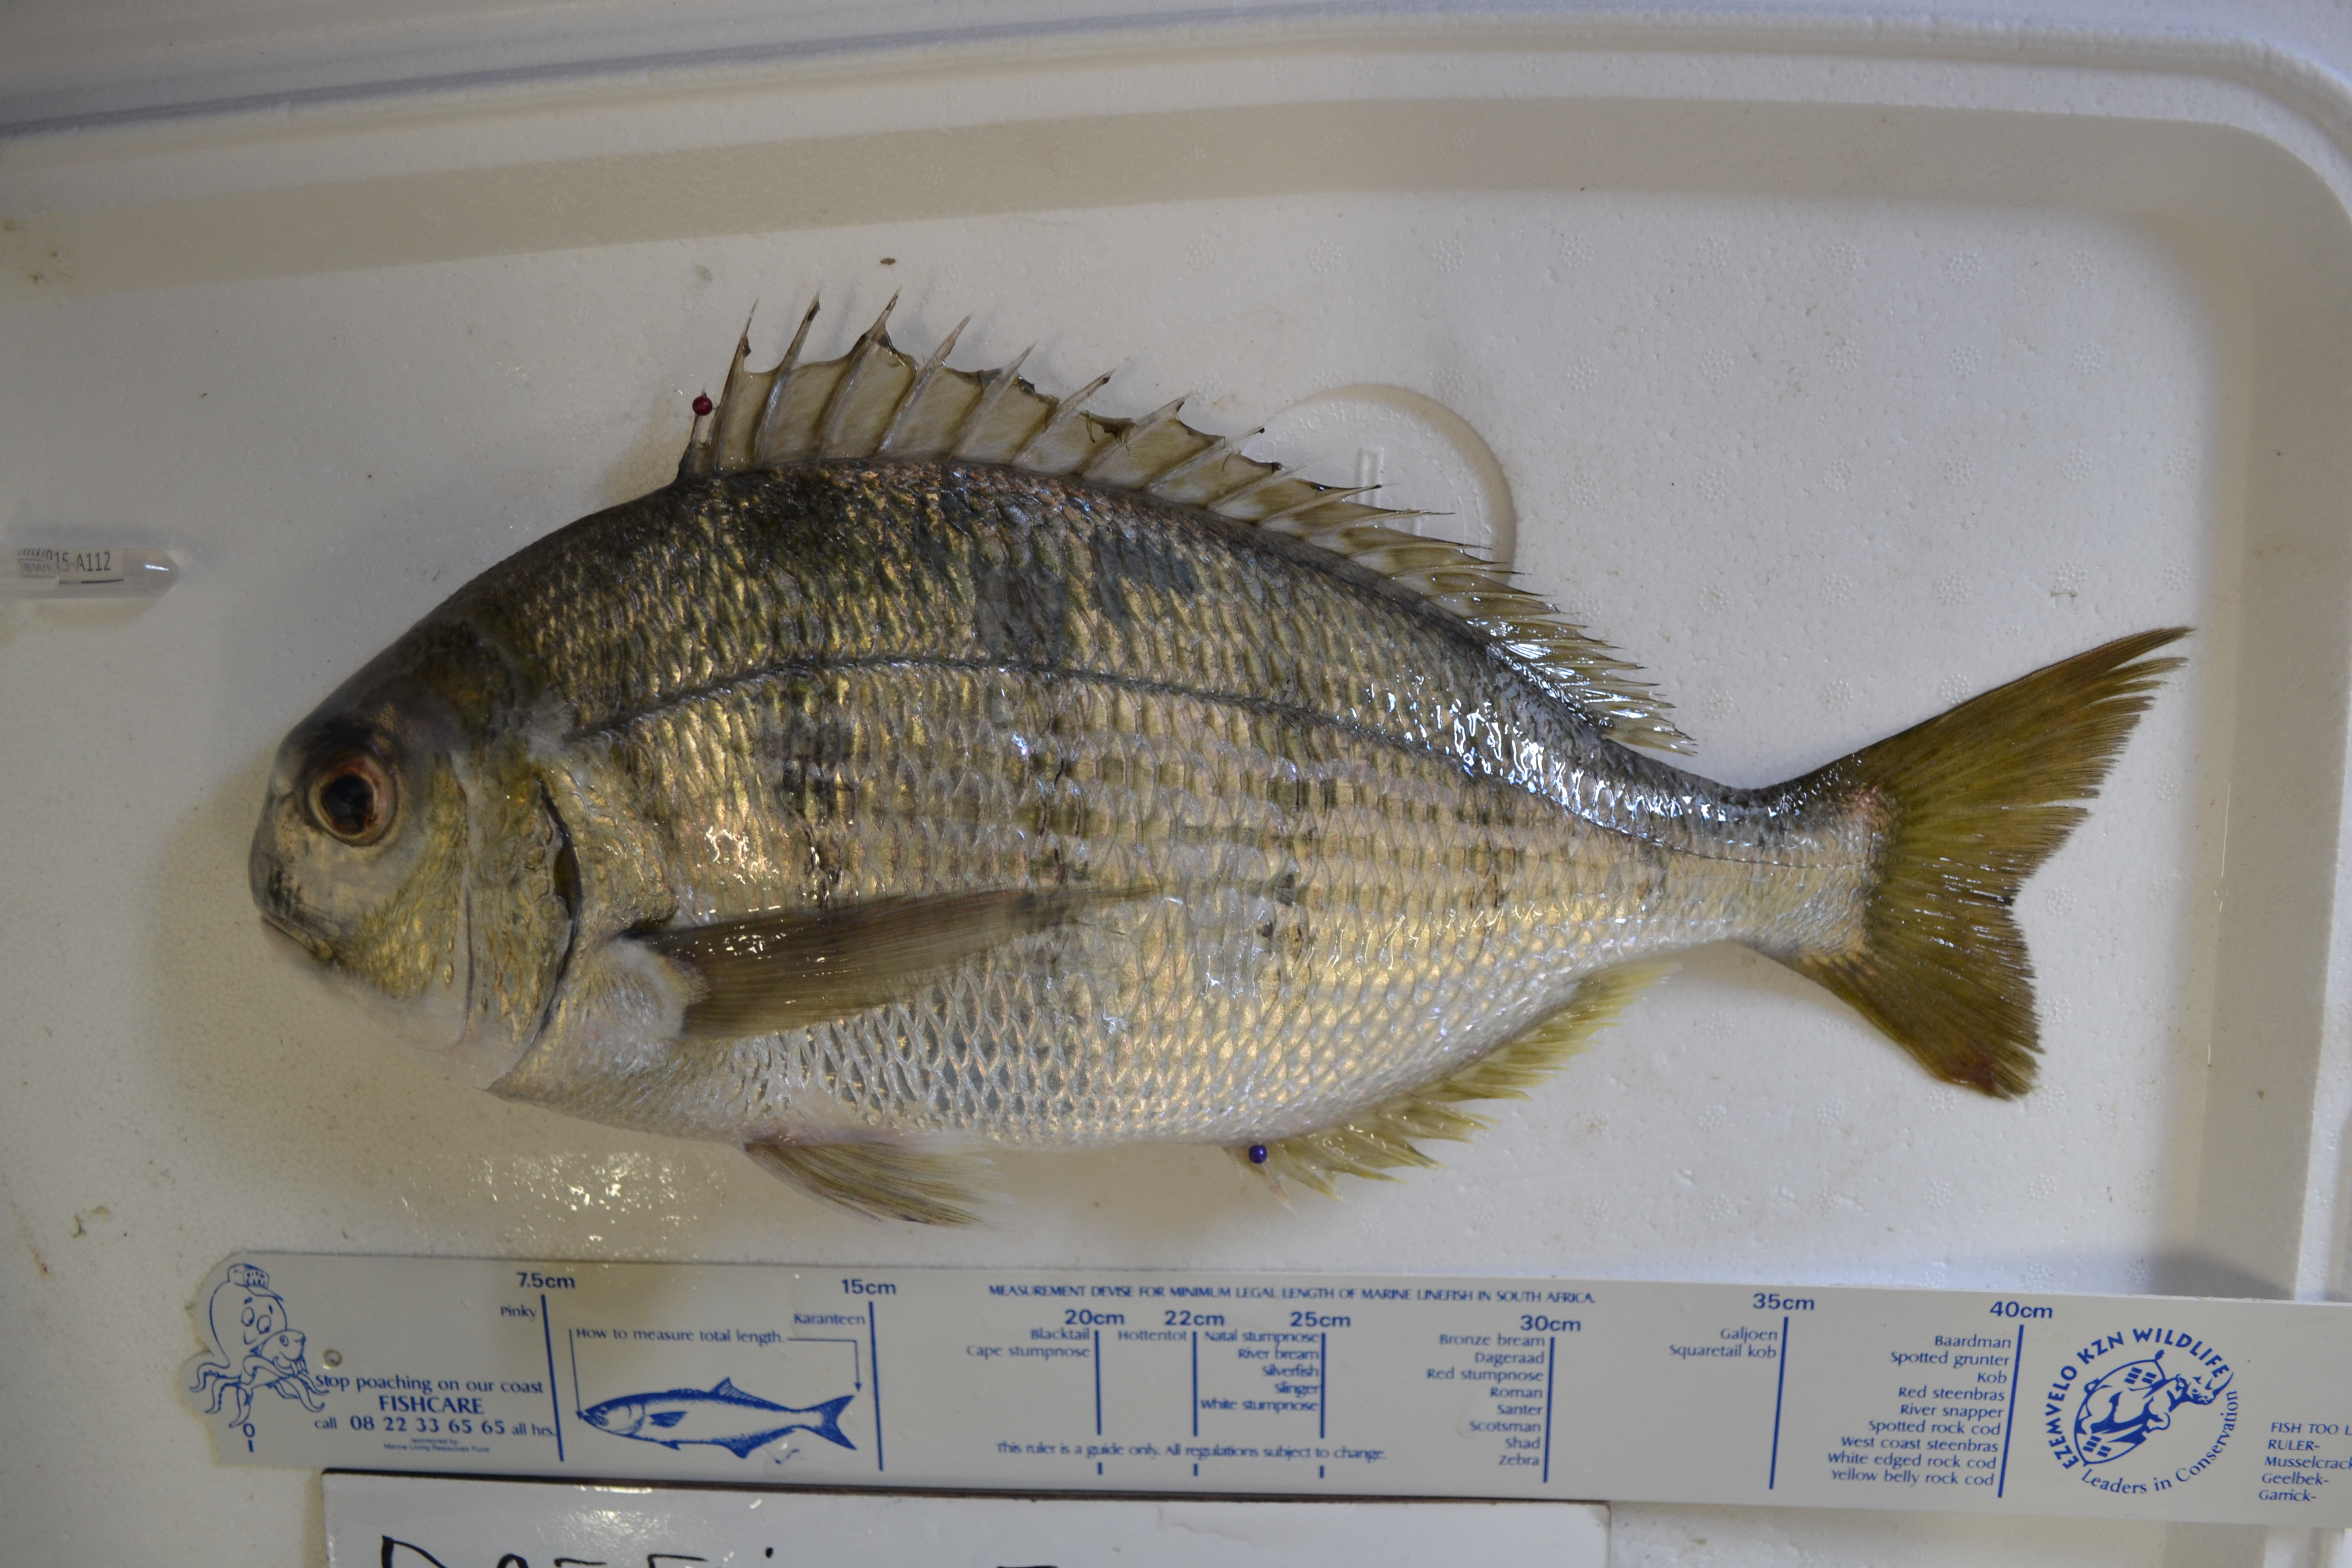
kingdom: Animalia
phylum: Chordata
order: Perciformes
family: Sparidae
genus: Rhabdosargus
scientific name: Rhabdosargus globiceps
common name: White stumpnose
